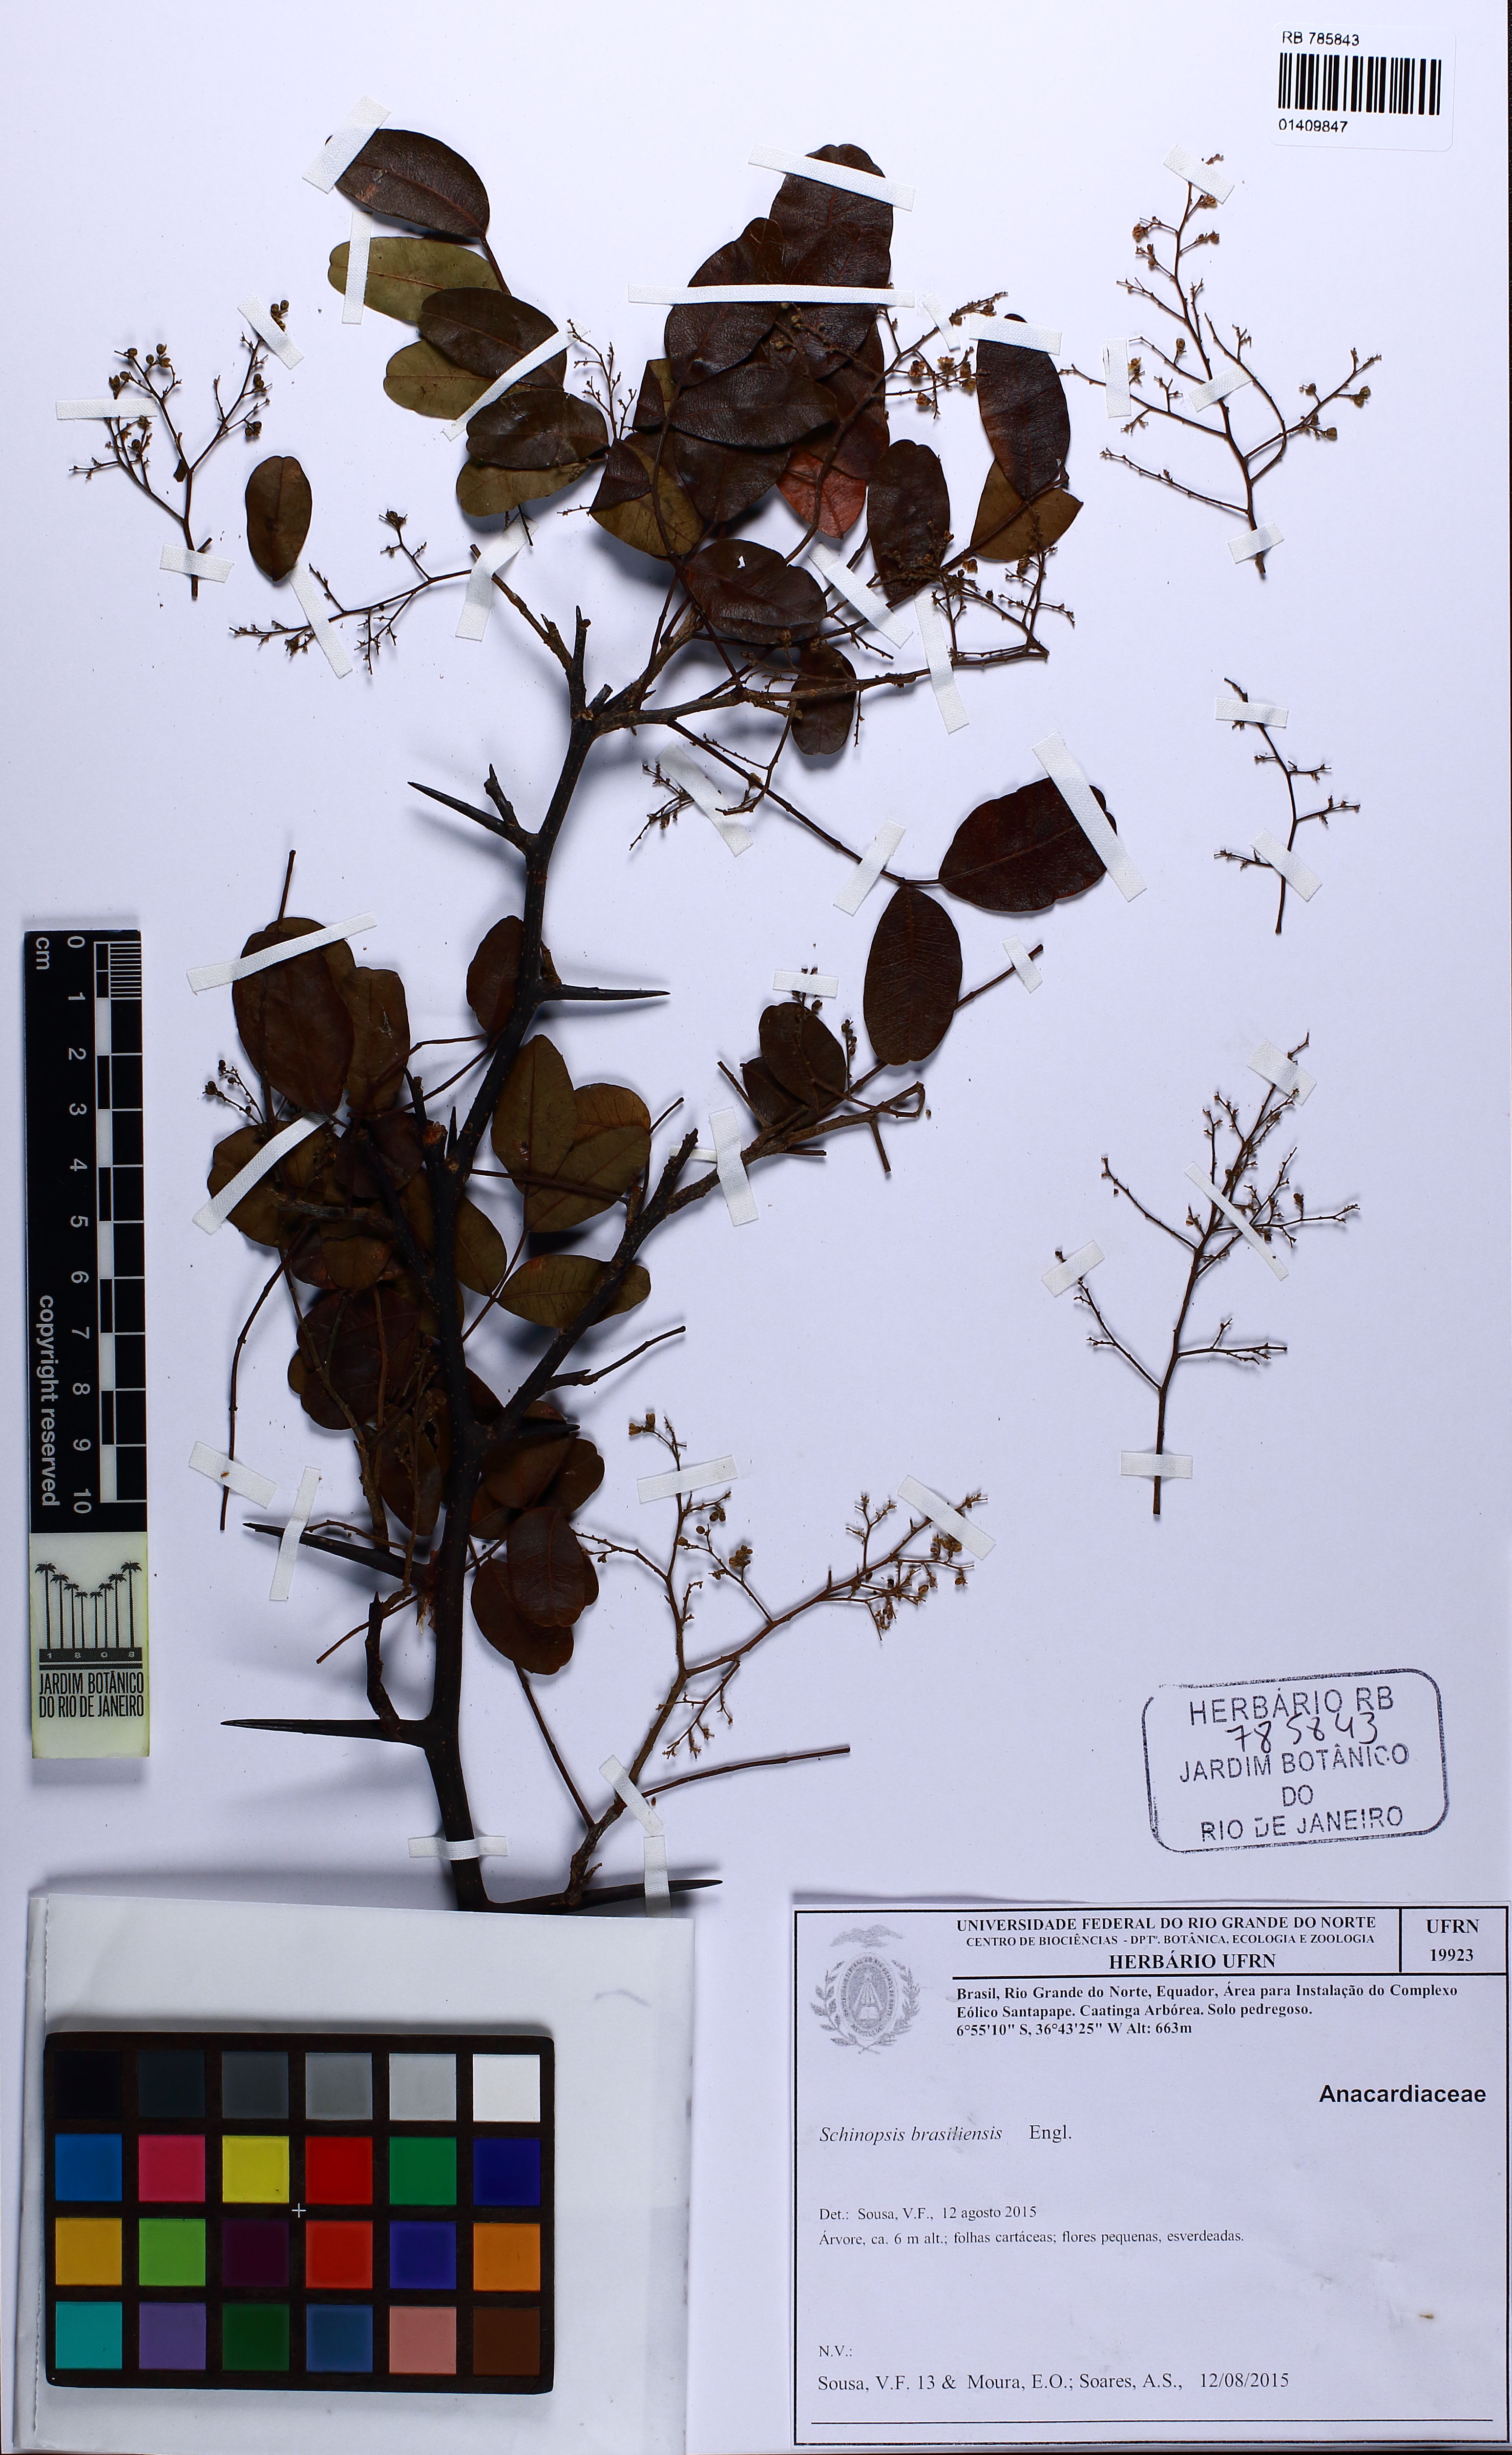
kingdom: Plantae
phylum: Tracheophyta
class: Magnoliopsida
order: Sapindales
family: Anacardiaceae
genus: Schinopsis
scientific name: Schinopsis brasiliensis
